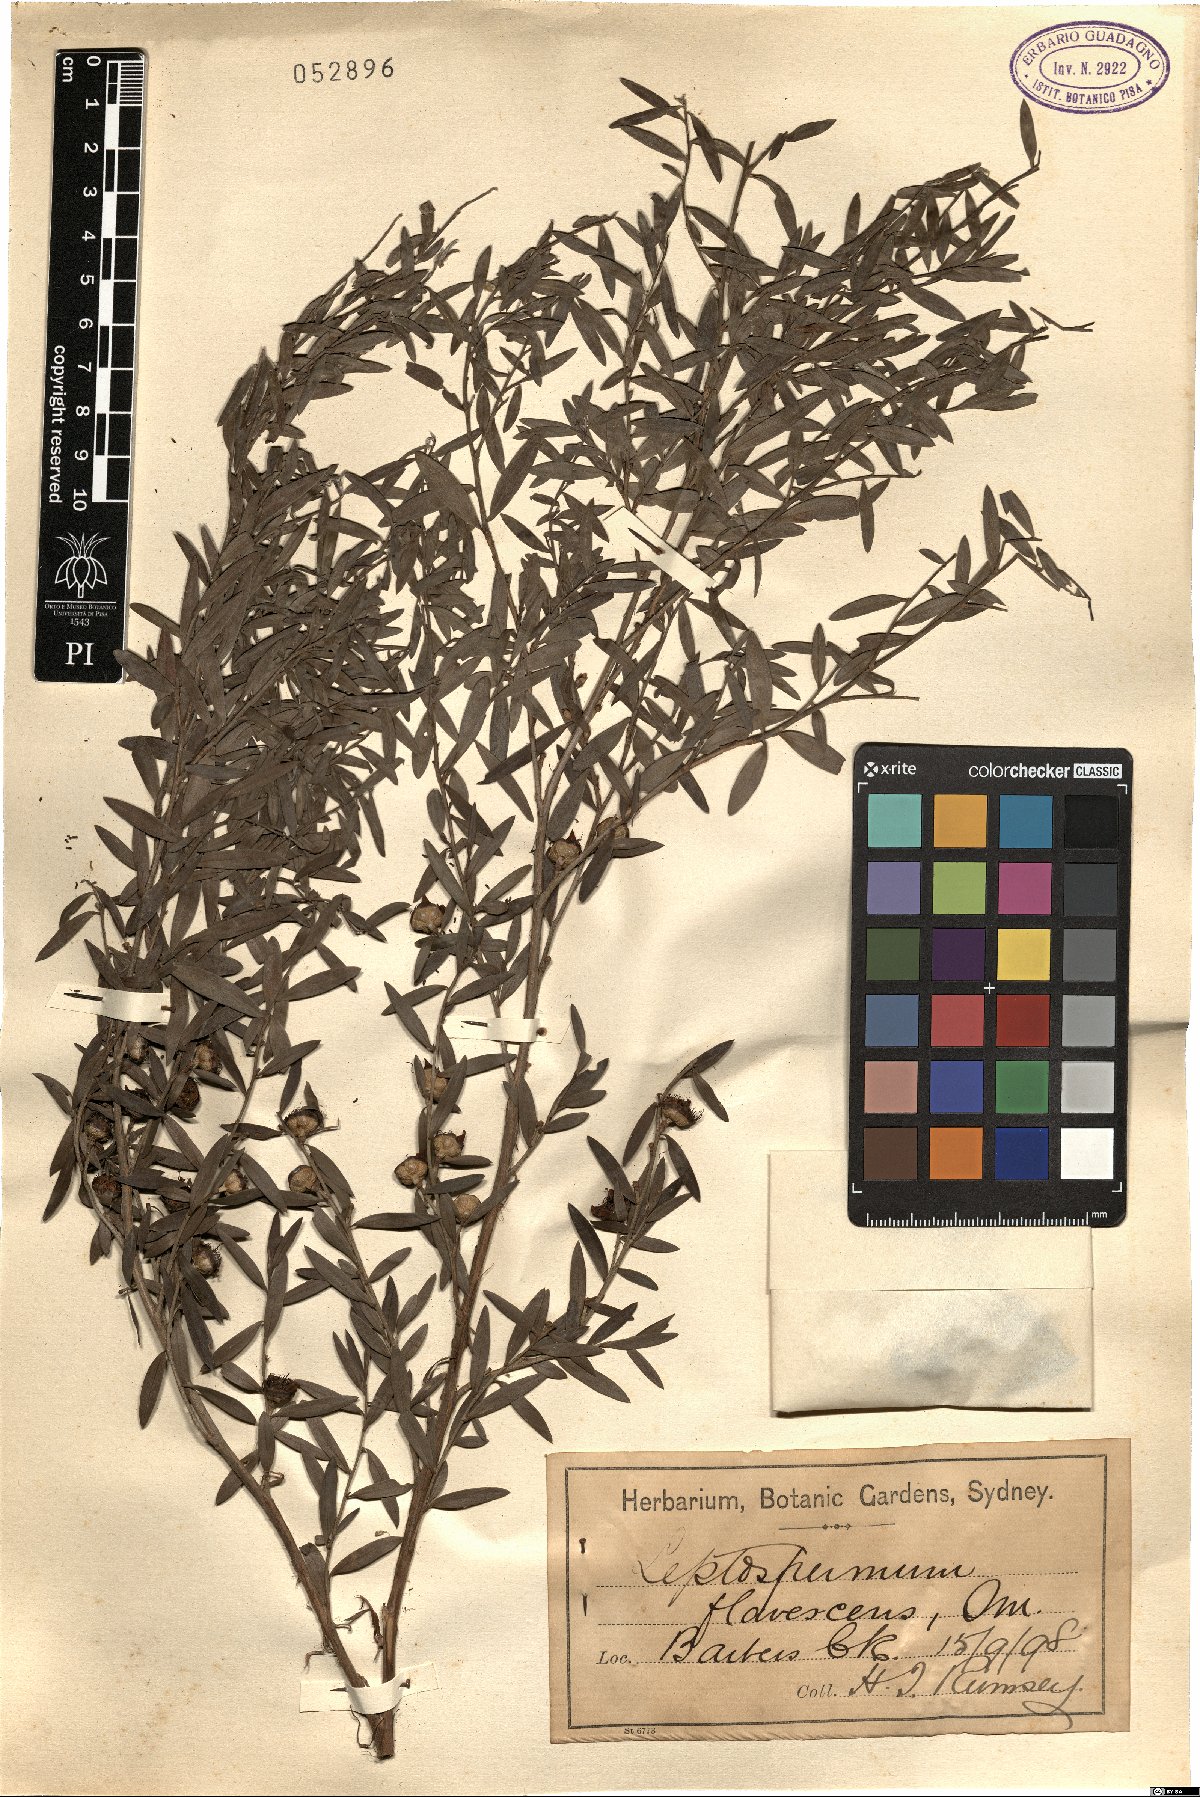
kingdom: Plantae
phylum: Tracheophyta
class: Magnoliopsida
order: Myrtales
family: Myrtaceae
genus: Leptospermum
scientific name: Leptospermum polygalifolium
